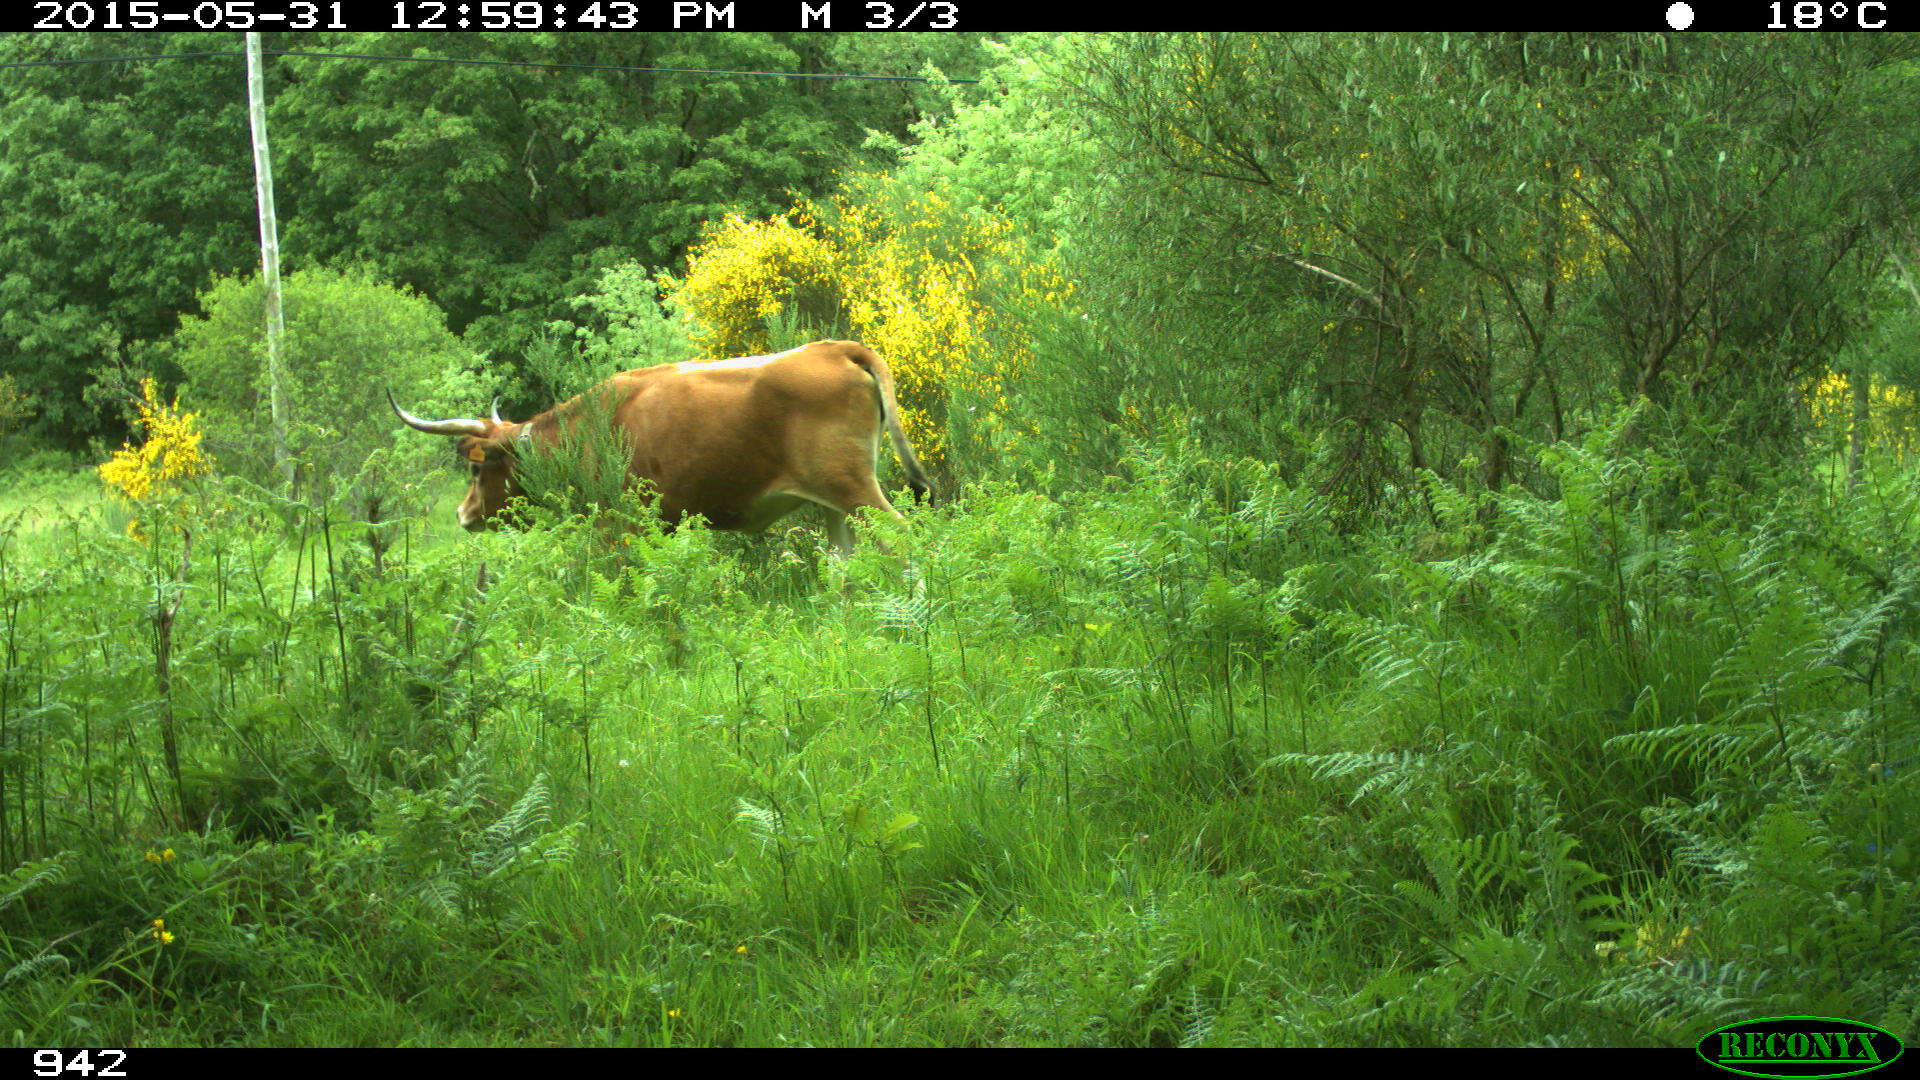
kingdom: Animalia
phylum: Chordata
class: Mammalia
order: Artiodactyla
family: Bovidae
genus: Bos
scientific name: Bos taurus
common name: Domesticated cattle
